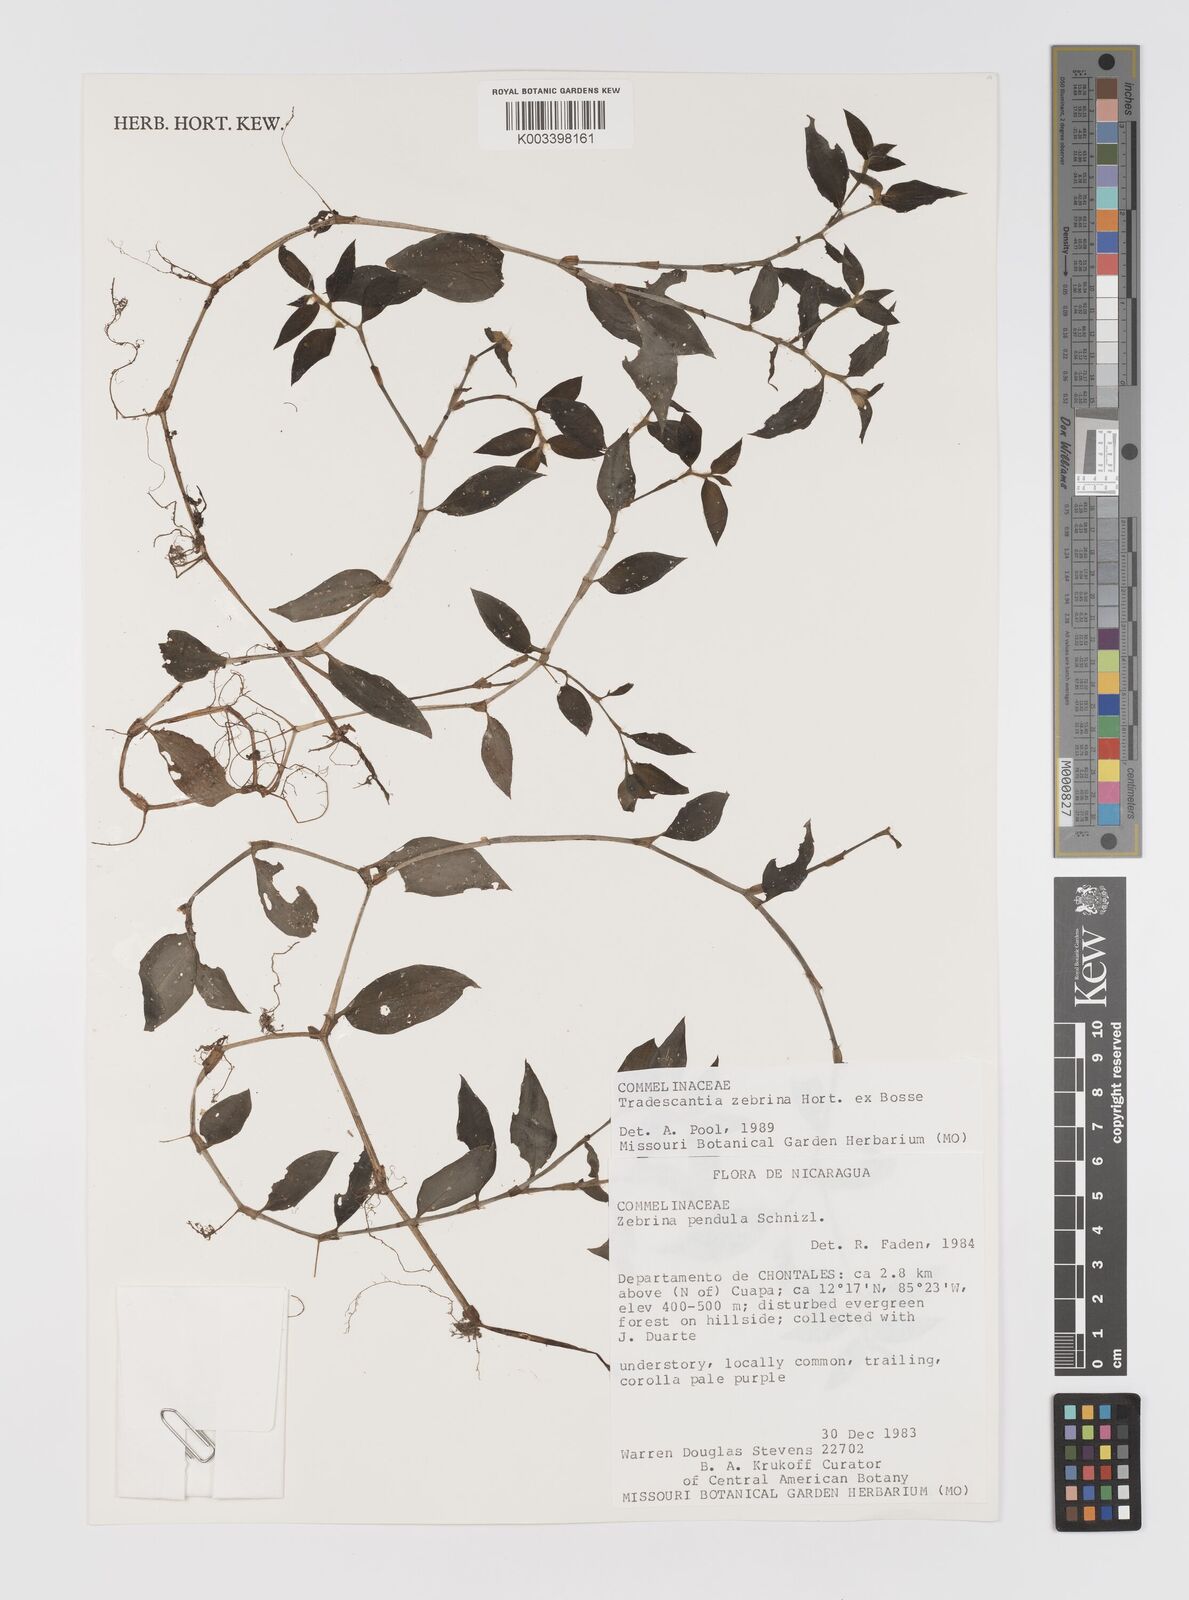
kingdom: Plantae
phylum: Tracheophyta
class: Liliopsida
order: Commelinales
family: Commelinaceae
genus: Tradescantia
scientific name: Tradescantia zebrina
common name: Inchplant
